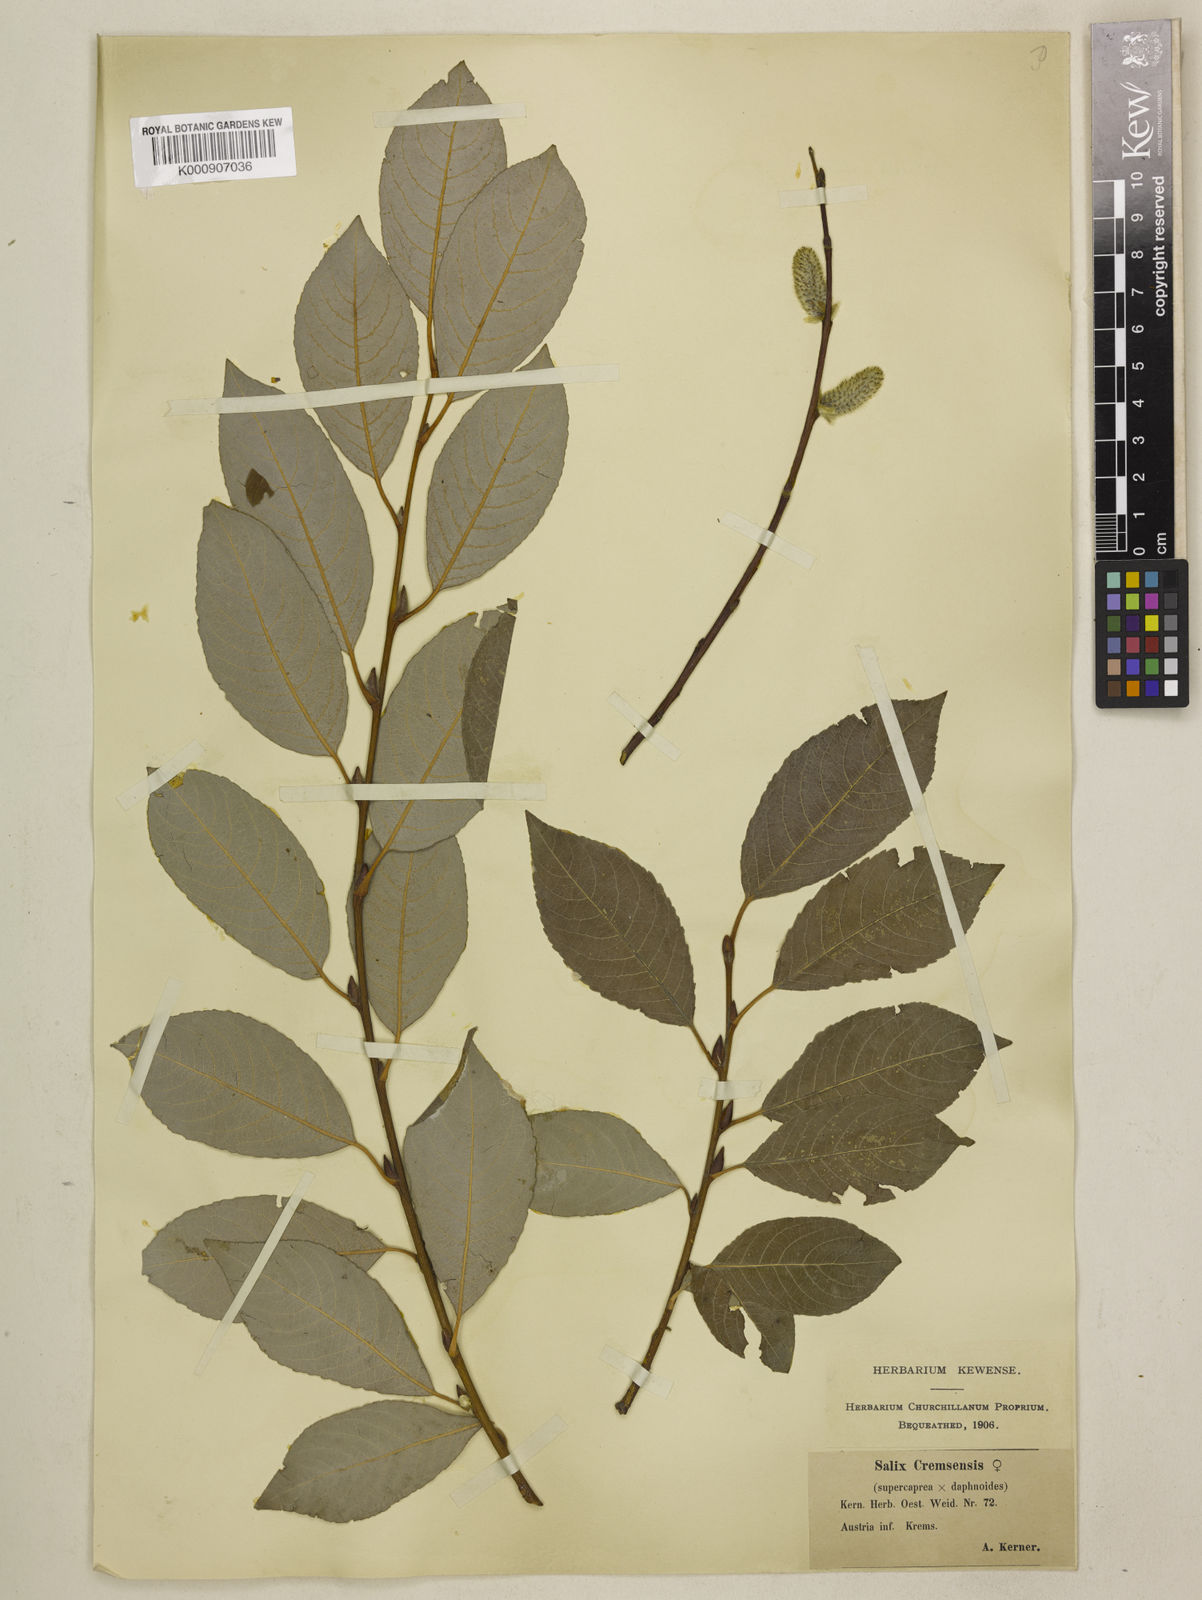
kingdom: Plantae
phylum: Tracheophyta
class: Magnoliopsida
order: Malpighiales
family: Salicaceae
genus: Salix
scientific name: Salix caprea
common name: Goat willow
